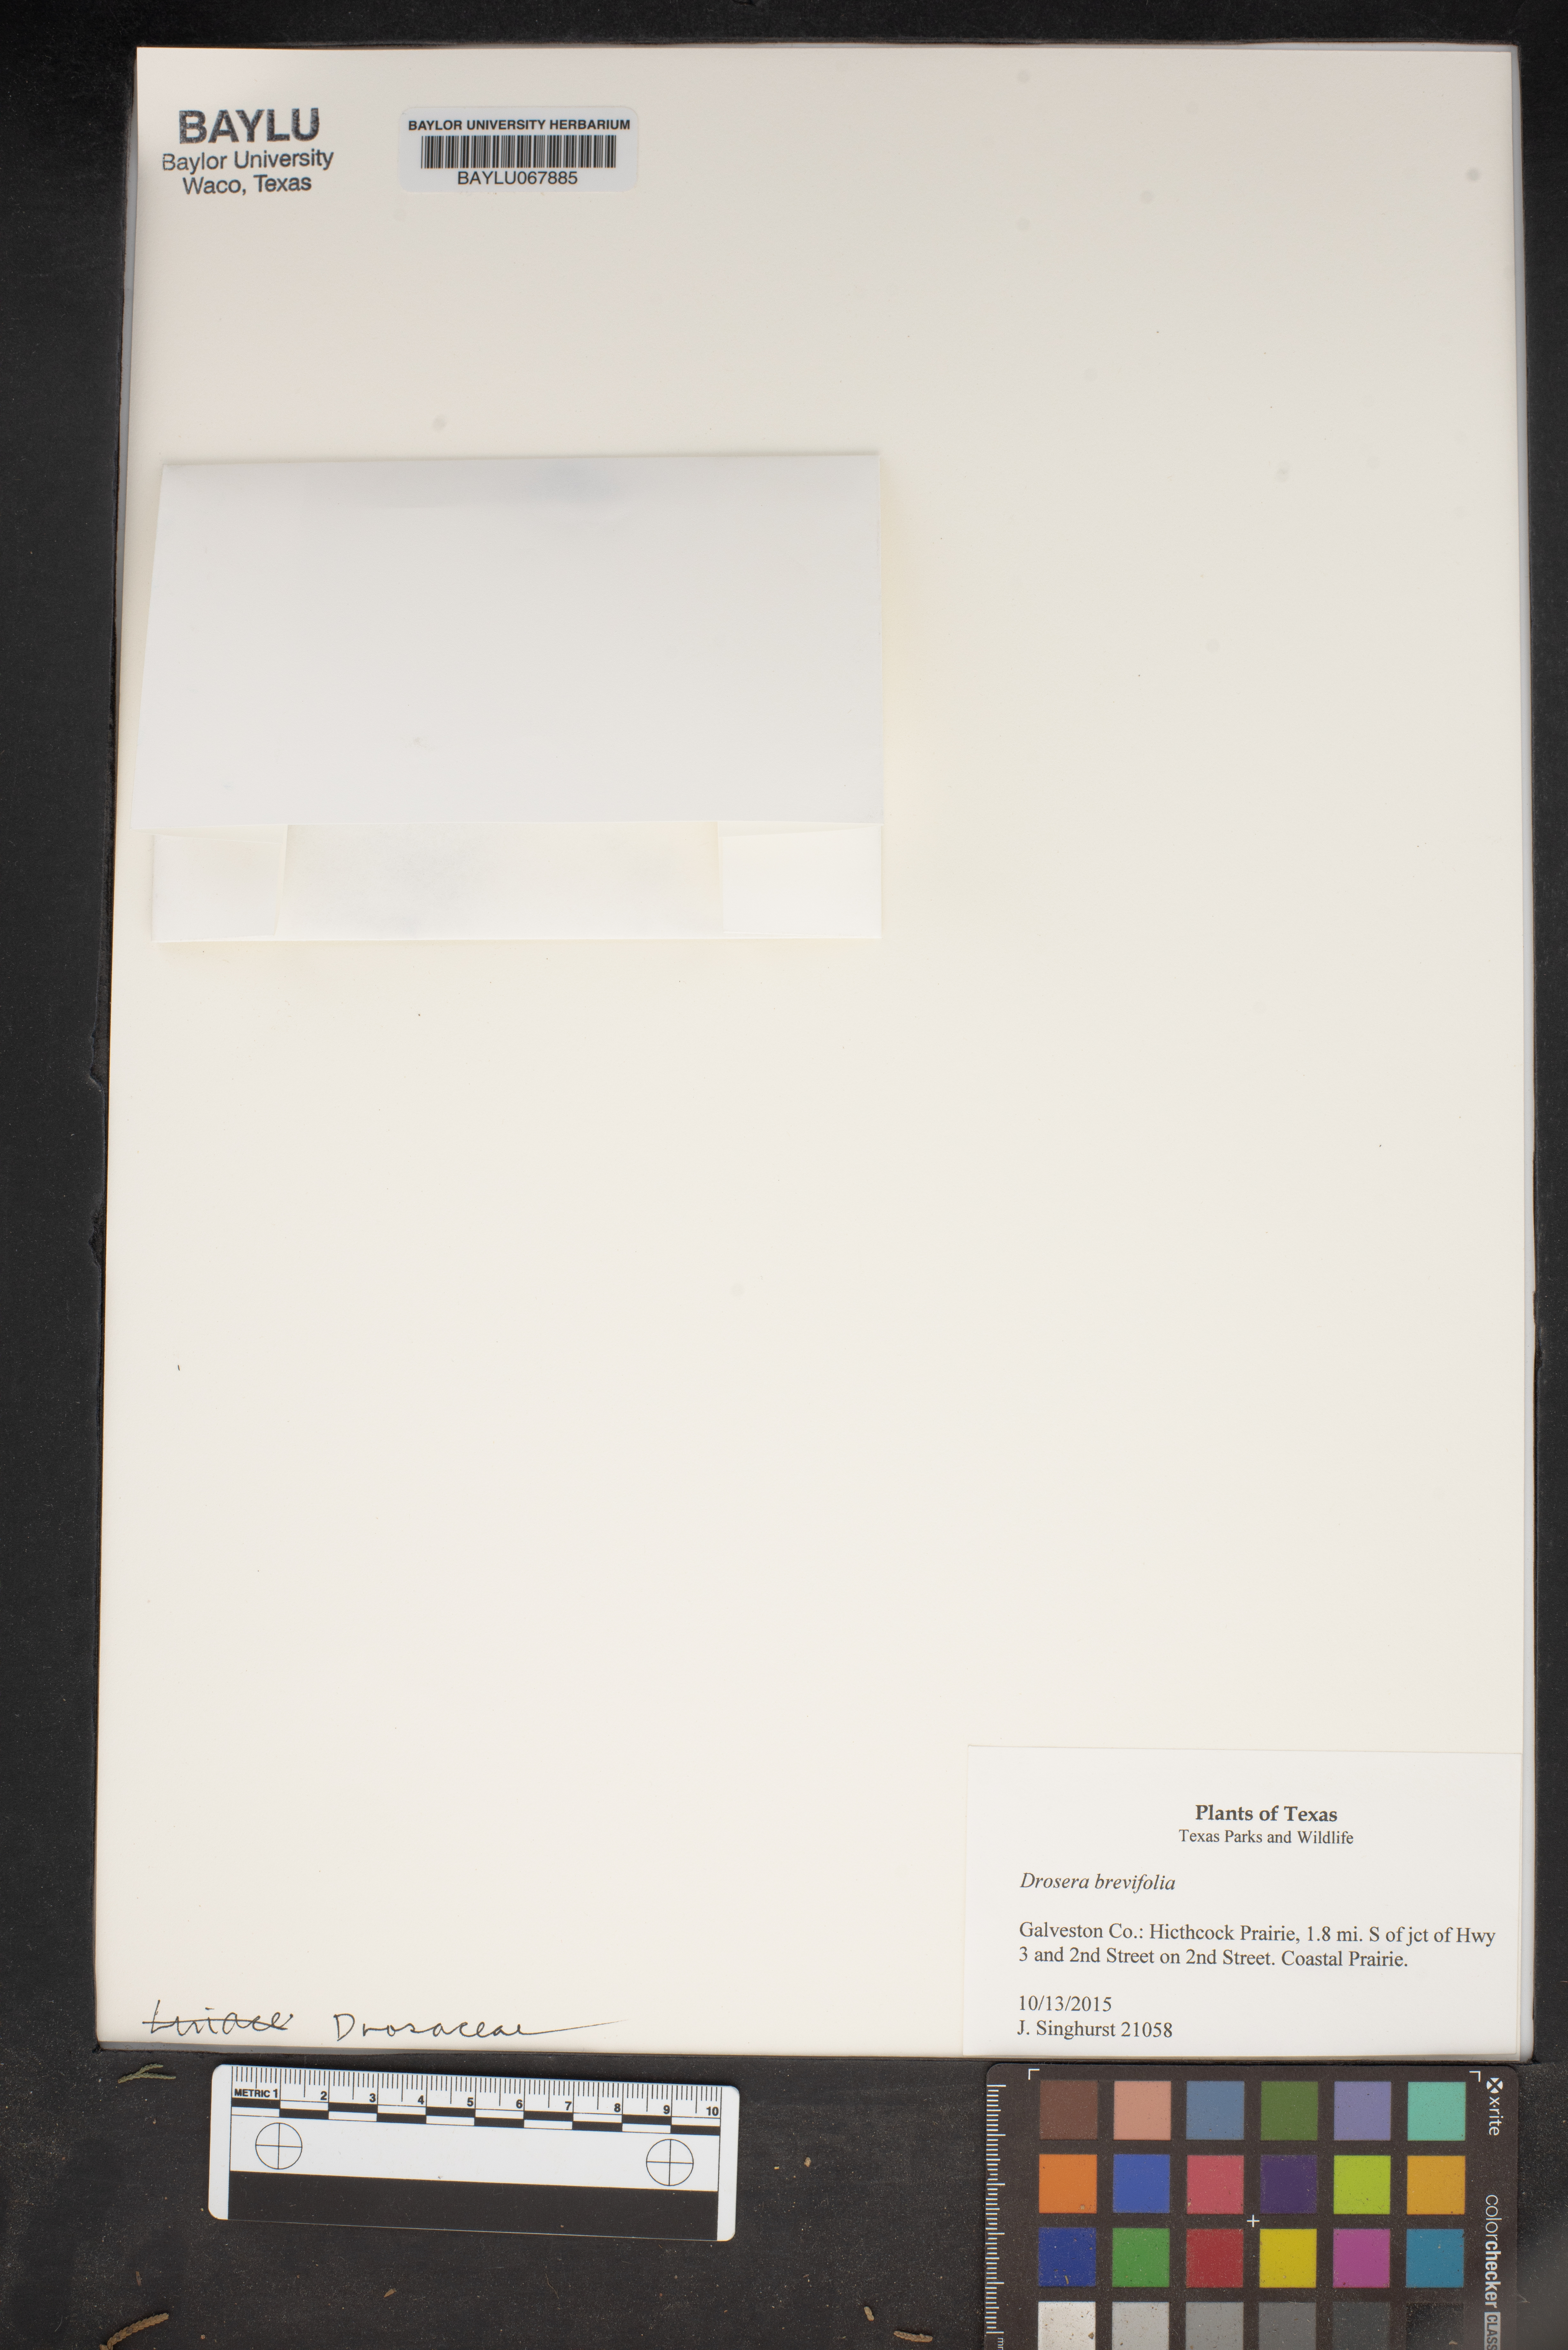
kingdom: Plantae
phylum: Tracheophyta
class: Magnoliopsida
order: Caryophyllales
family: Droseraceae
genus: Drosera
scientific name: Drosera brevifolia
